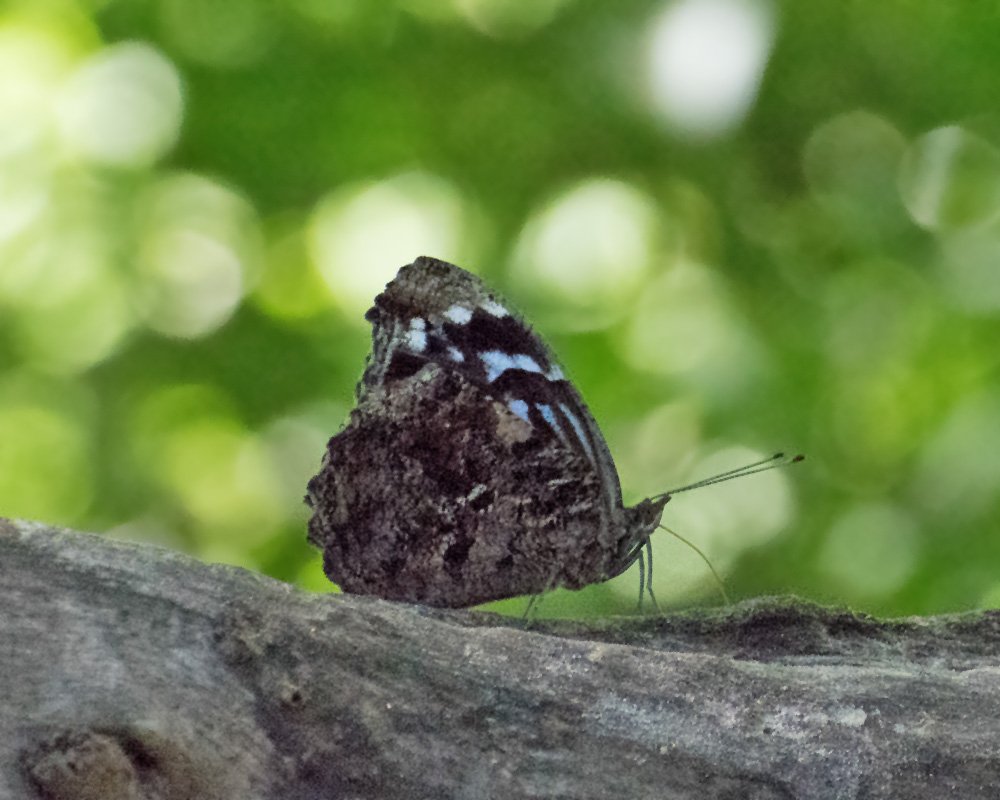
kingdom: Animalia
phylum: Arthropoda
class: Insecta
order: Lepidoptera
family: Nymphalidae
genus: Myscelia
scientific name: Myscelia ethusa
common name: Mexican Bluewing
